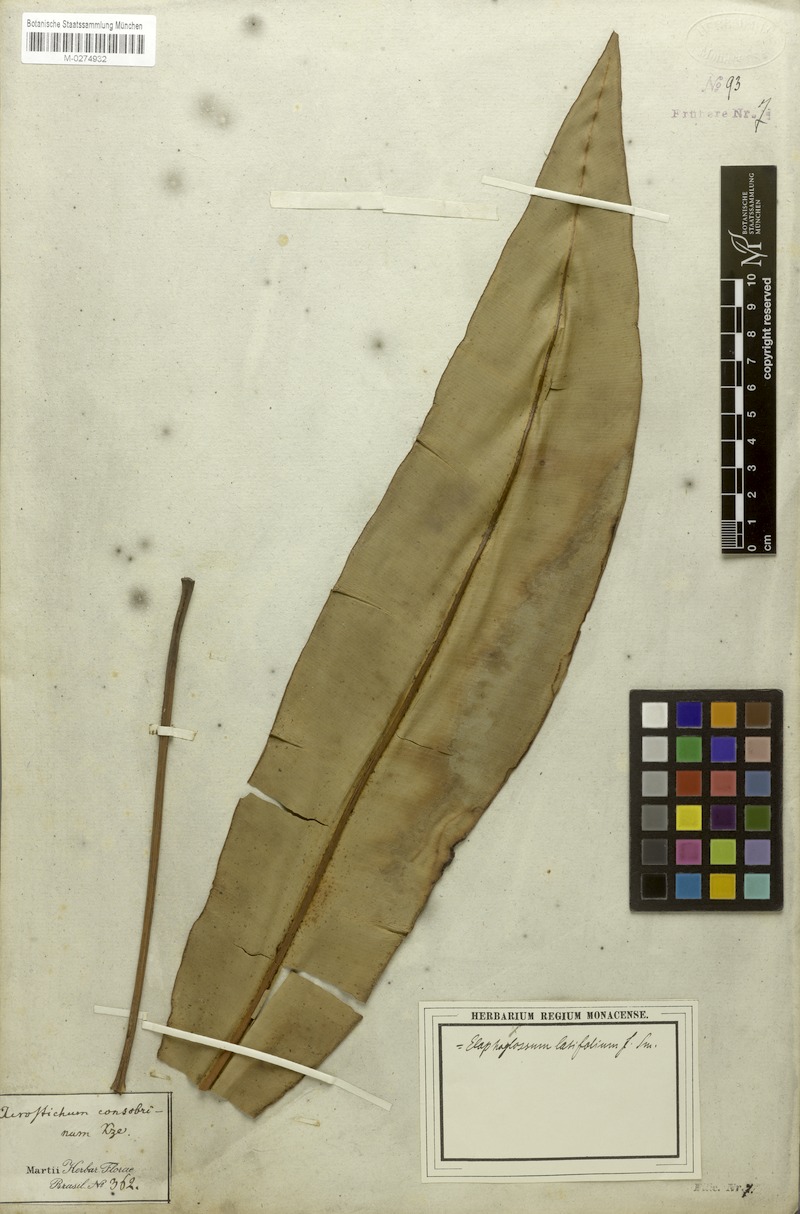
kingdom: Plantae
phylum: Tracheophyta
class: Polypodiopsida
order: Polypodiales
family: Dryopteridaceae
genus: Elaphoglossum
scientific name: Elaphoglossum latifolium
